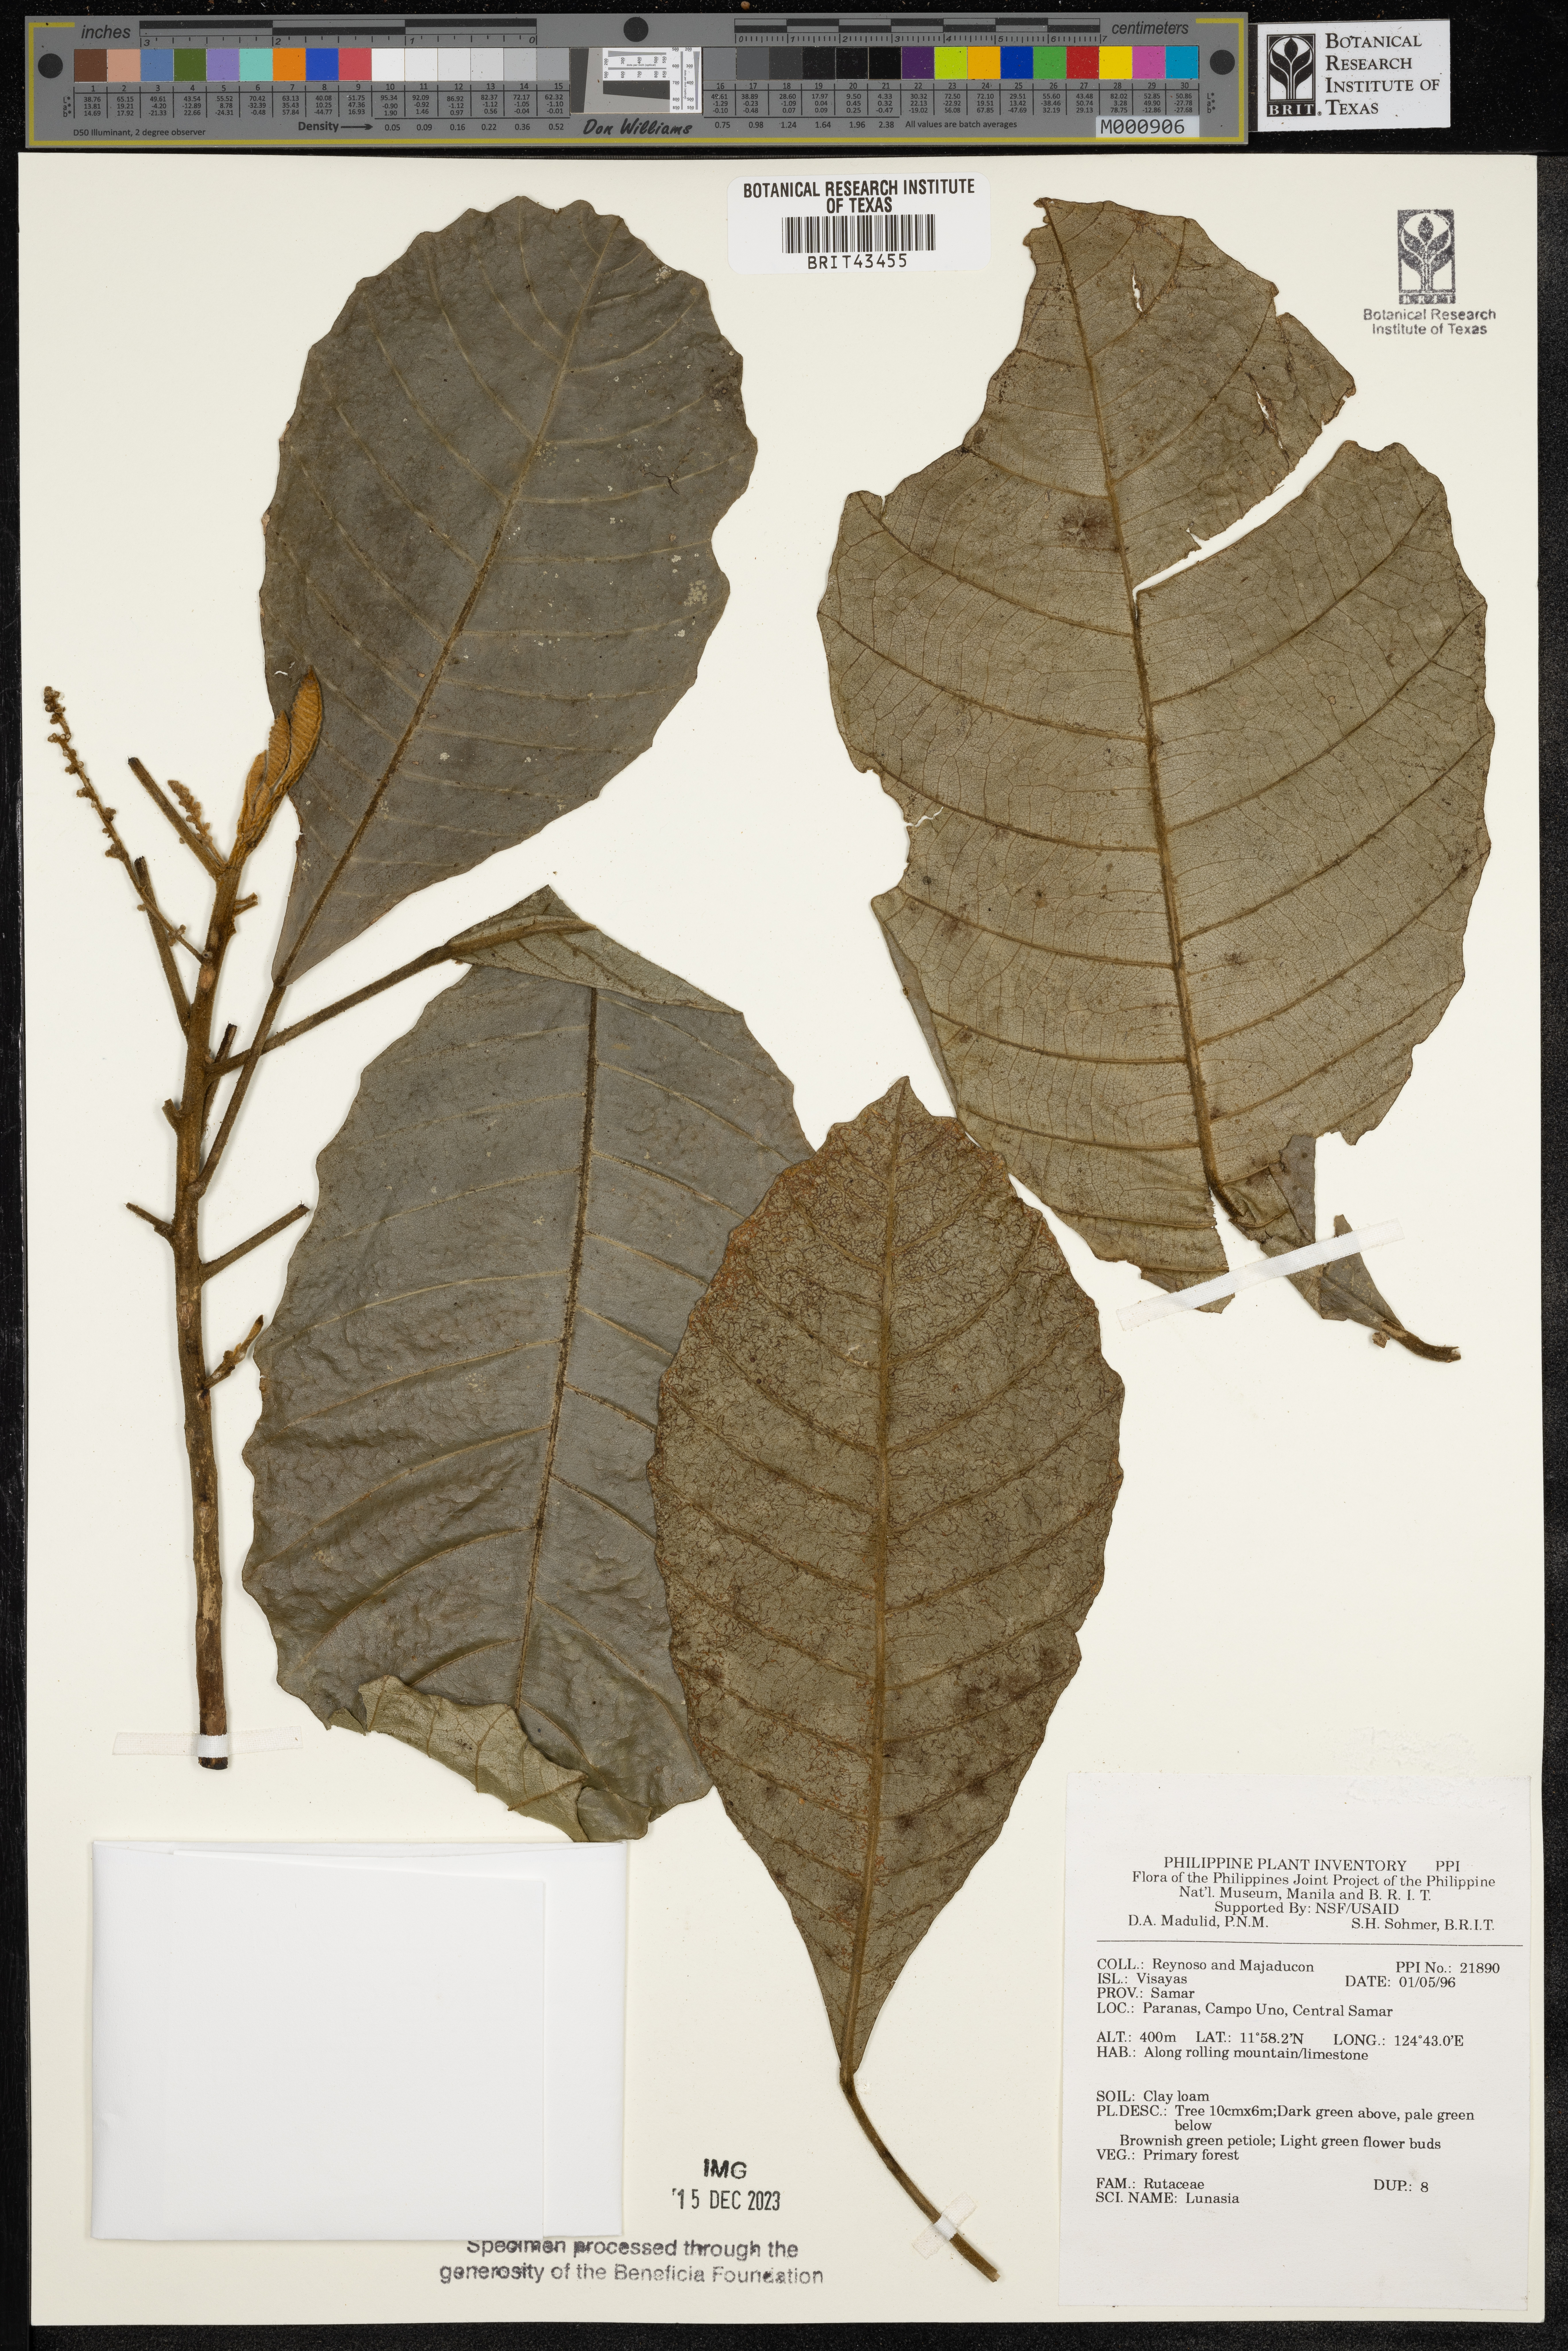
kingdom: Plantae
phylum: Tracheophyta
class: Magnoliopsida
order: Sapindales
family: Rutaceae
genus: Lunasia
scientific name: Lunasia
